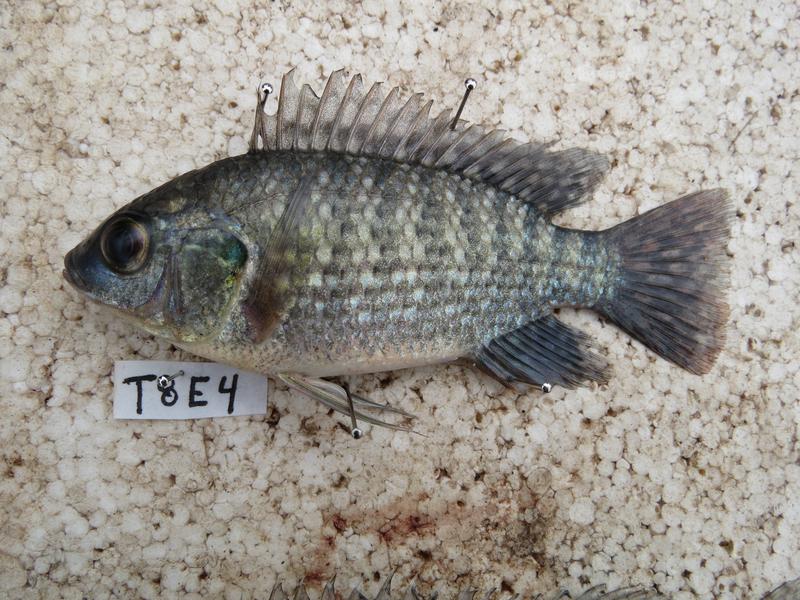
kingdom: Animalia
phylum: Chordata
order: Perciformes
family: Cichlidae
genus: Oreochromis
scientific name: Oreochromis leucostictus
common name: Blue spotted tilapia
